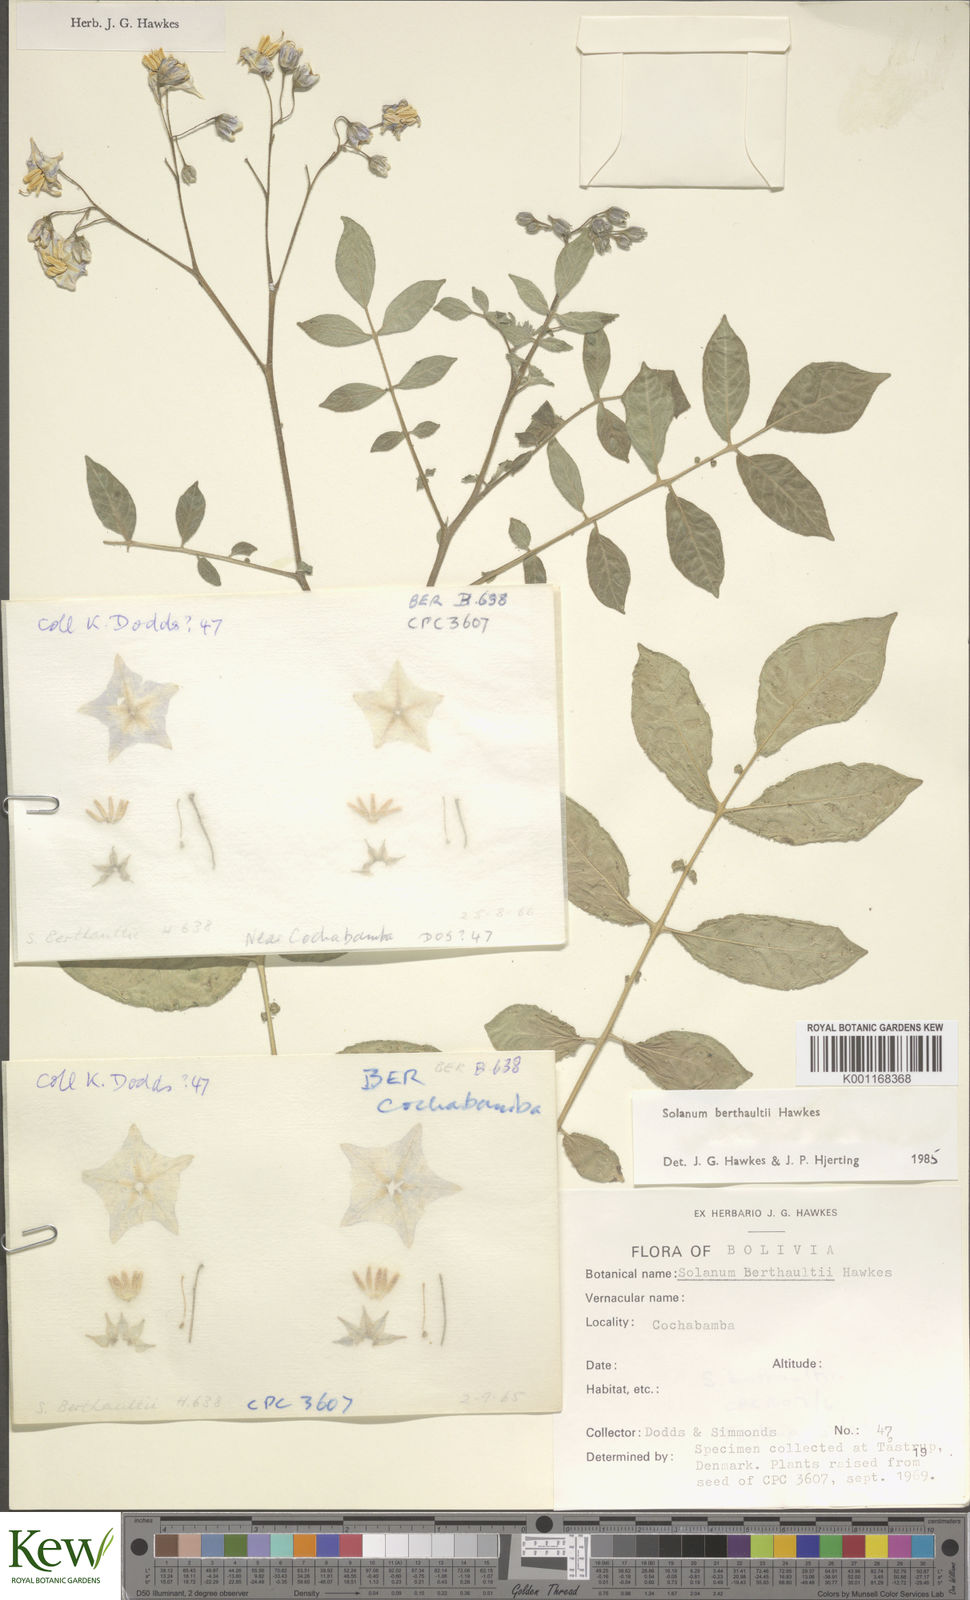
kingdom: Plantae
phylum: Tracheophyta
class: Magnoliopsida
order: Solanales
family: Solanaceae
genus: Solanum
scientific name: Solanum berthaultii
